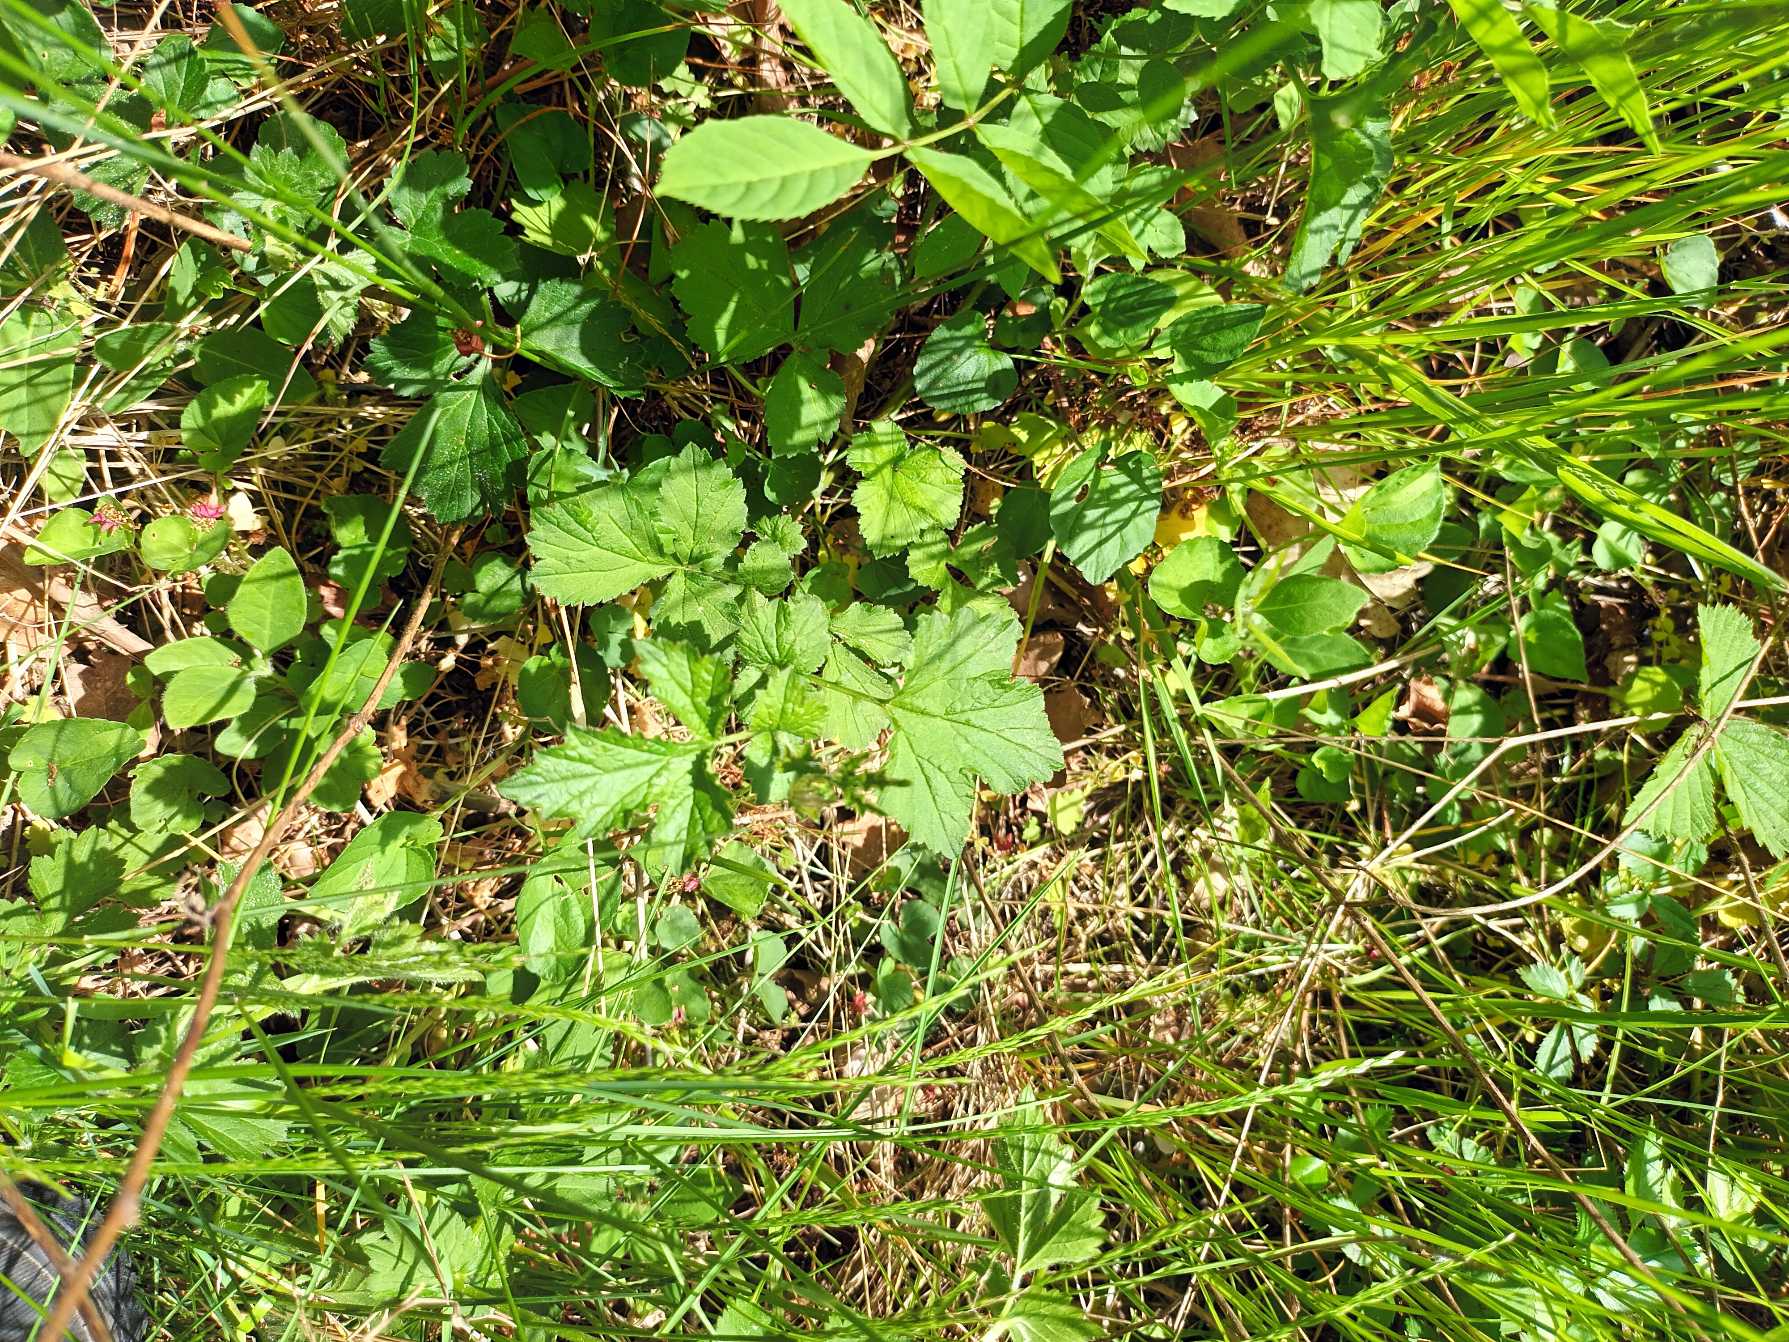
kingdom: Plantae
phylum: Tracheophyta
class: Magnoliopsida
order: Rosales
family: Rosaceae
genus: Geum
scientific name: Geum urbanum
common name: Feber-nellikerod
